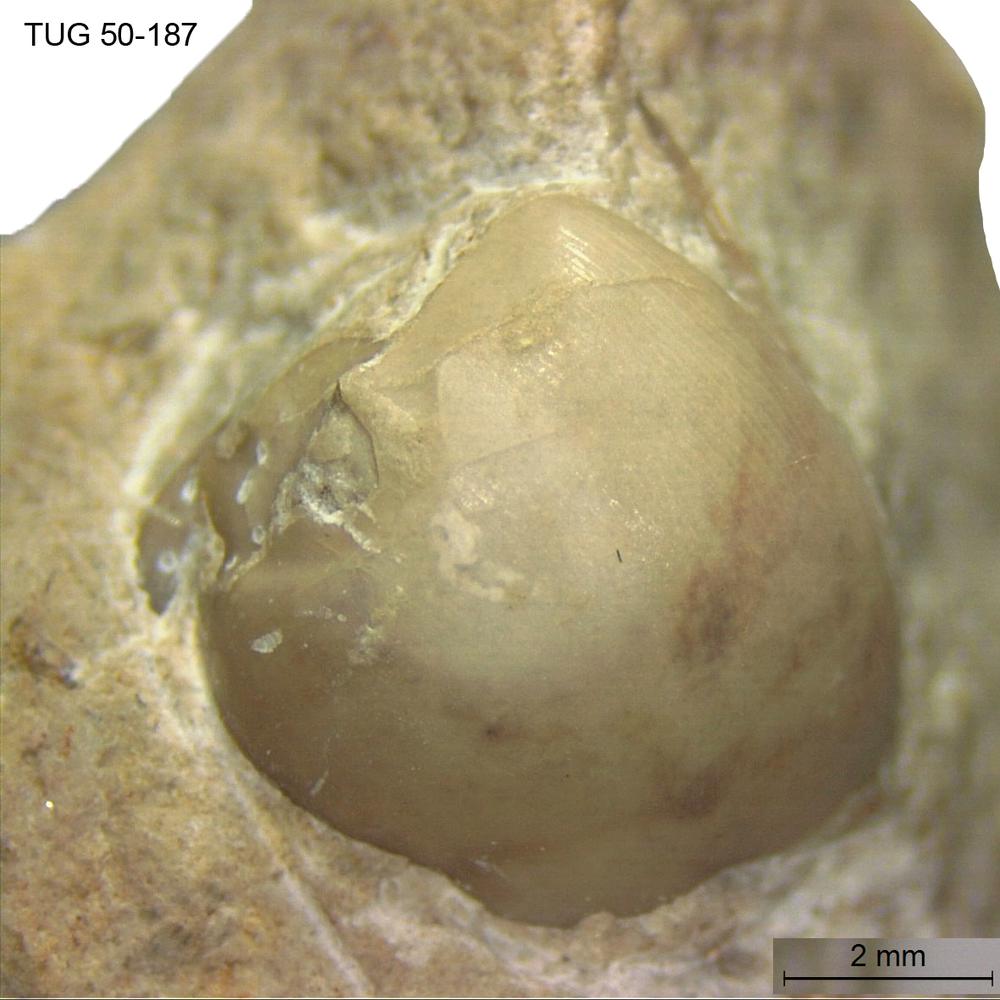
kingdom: Animalia
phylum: Arthropoda
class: Trilobita
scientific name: Trilobita
